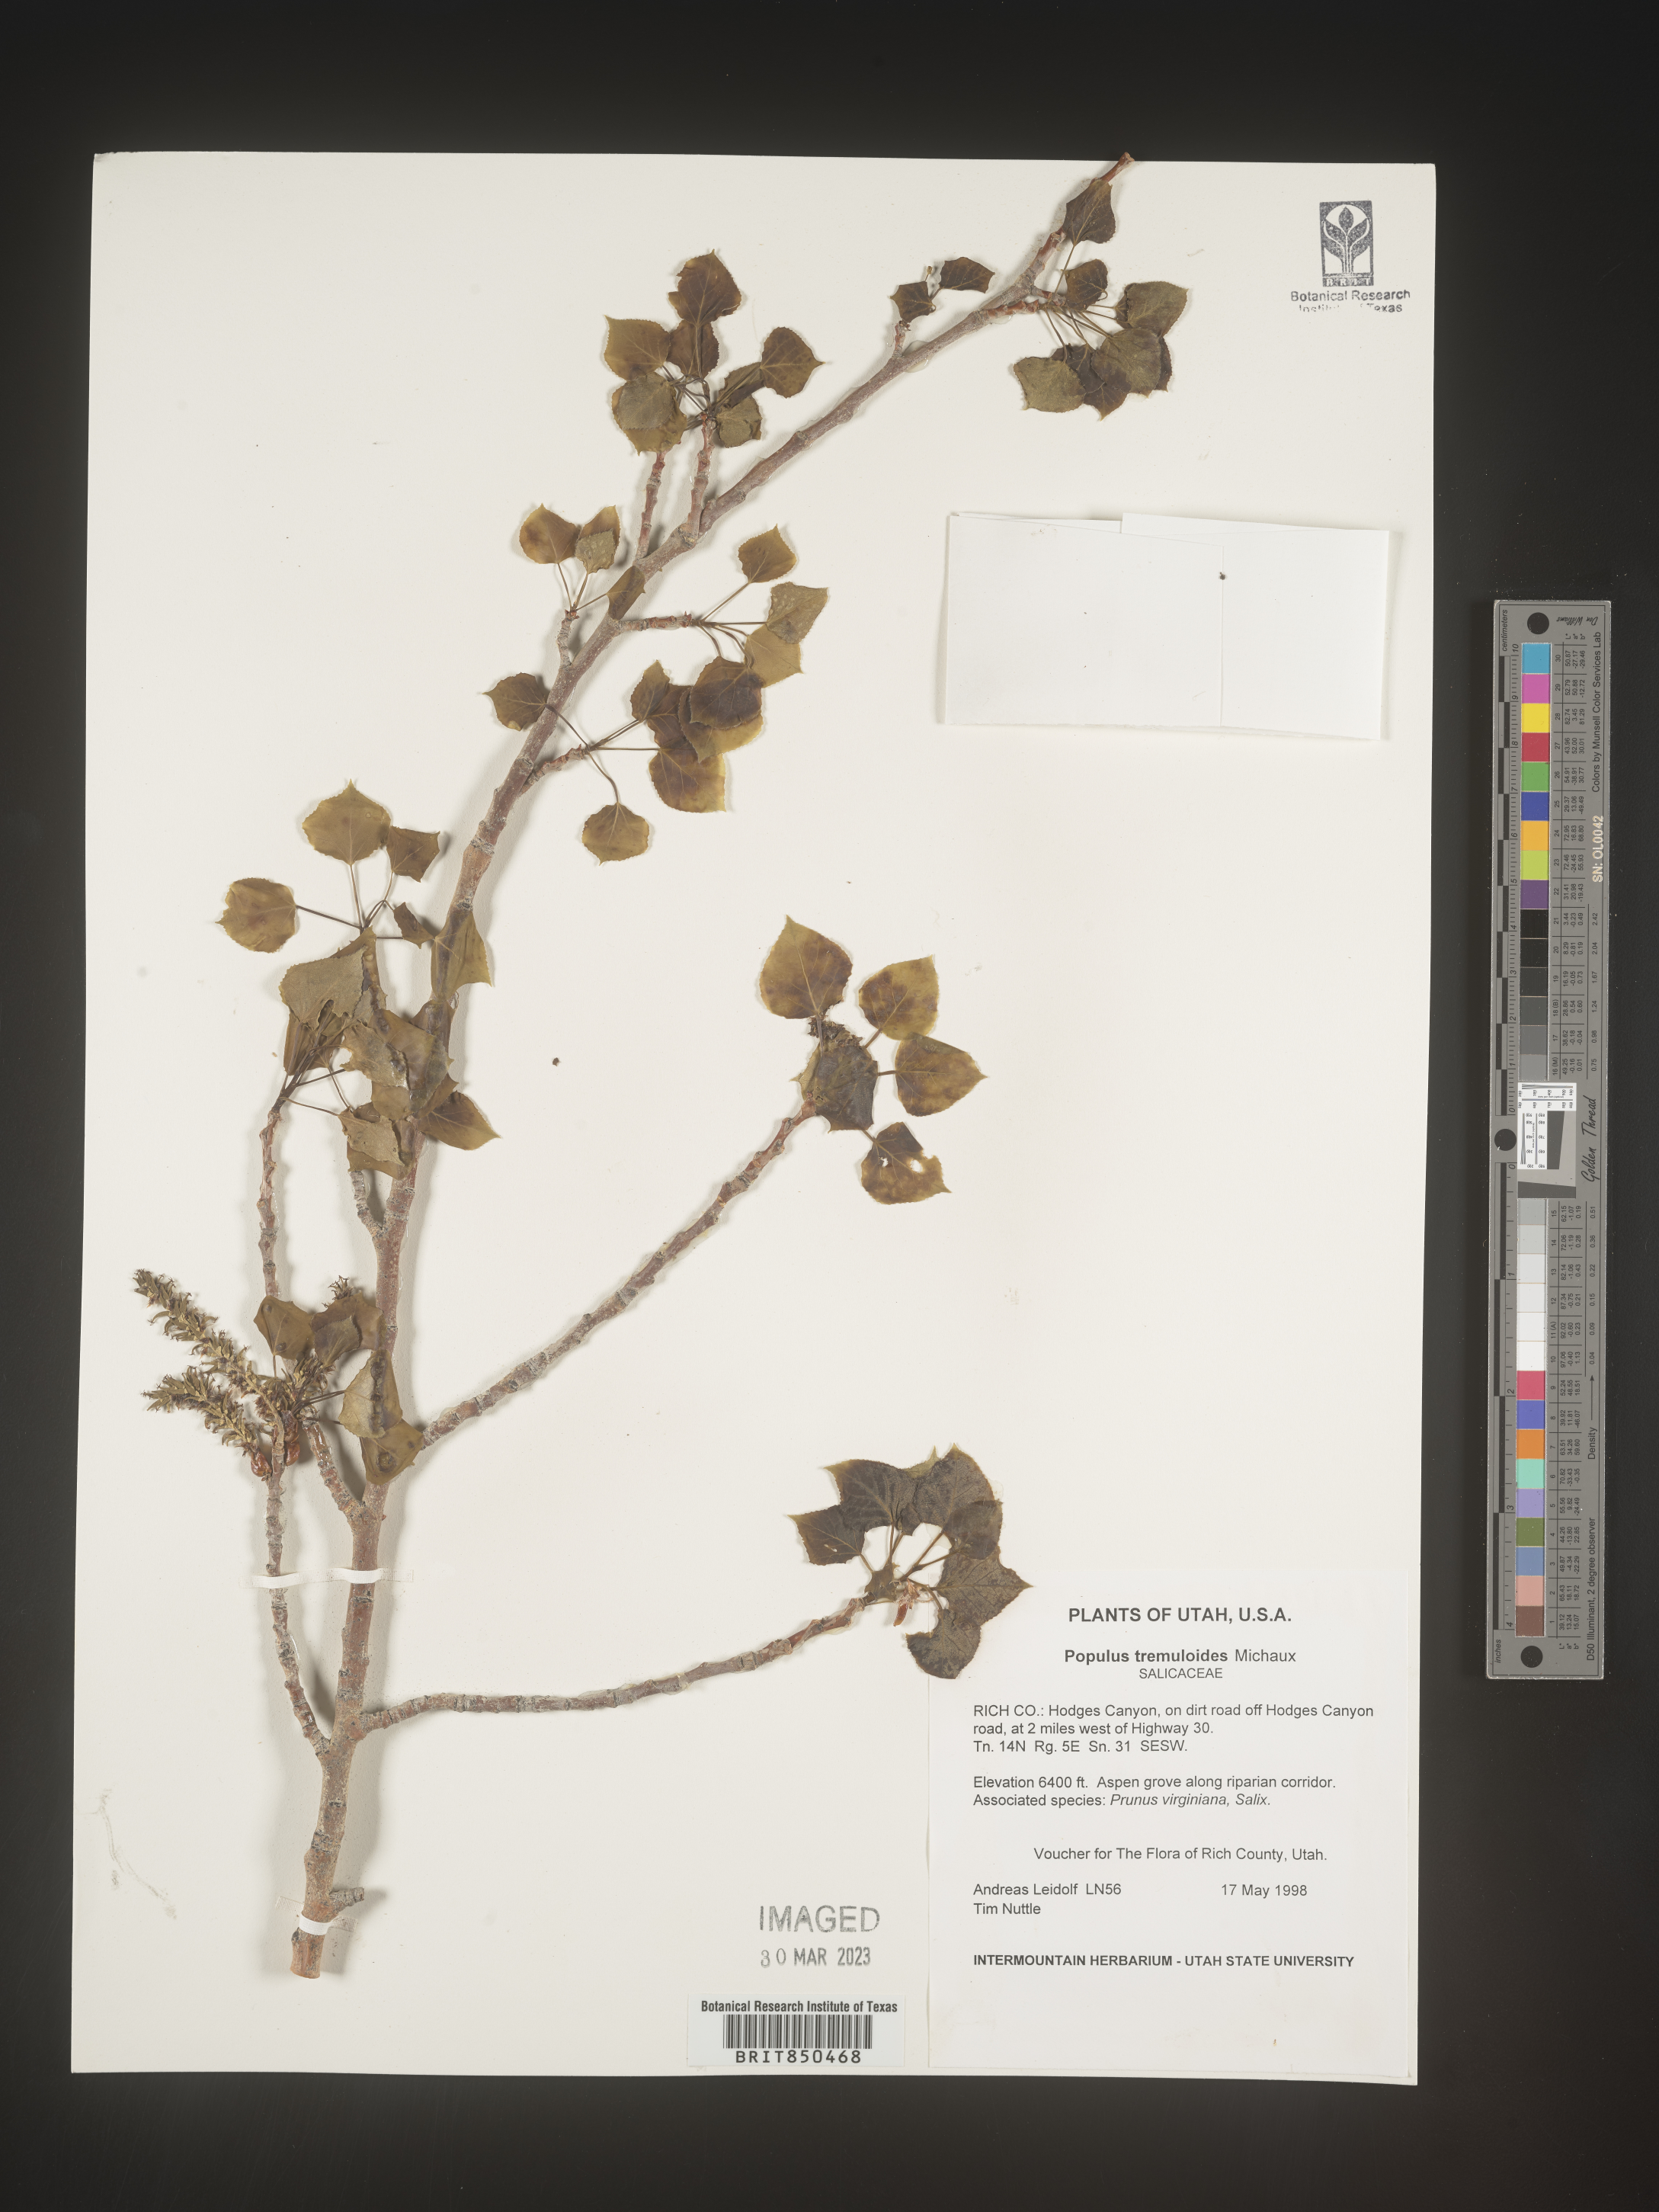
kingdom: Plantae
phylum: Tracheophyta
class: Magnoliopsida
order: Malpighiales
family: Salicaceae
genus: Populus
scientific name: Populus tremuloides
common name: Quaking aspen
